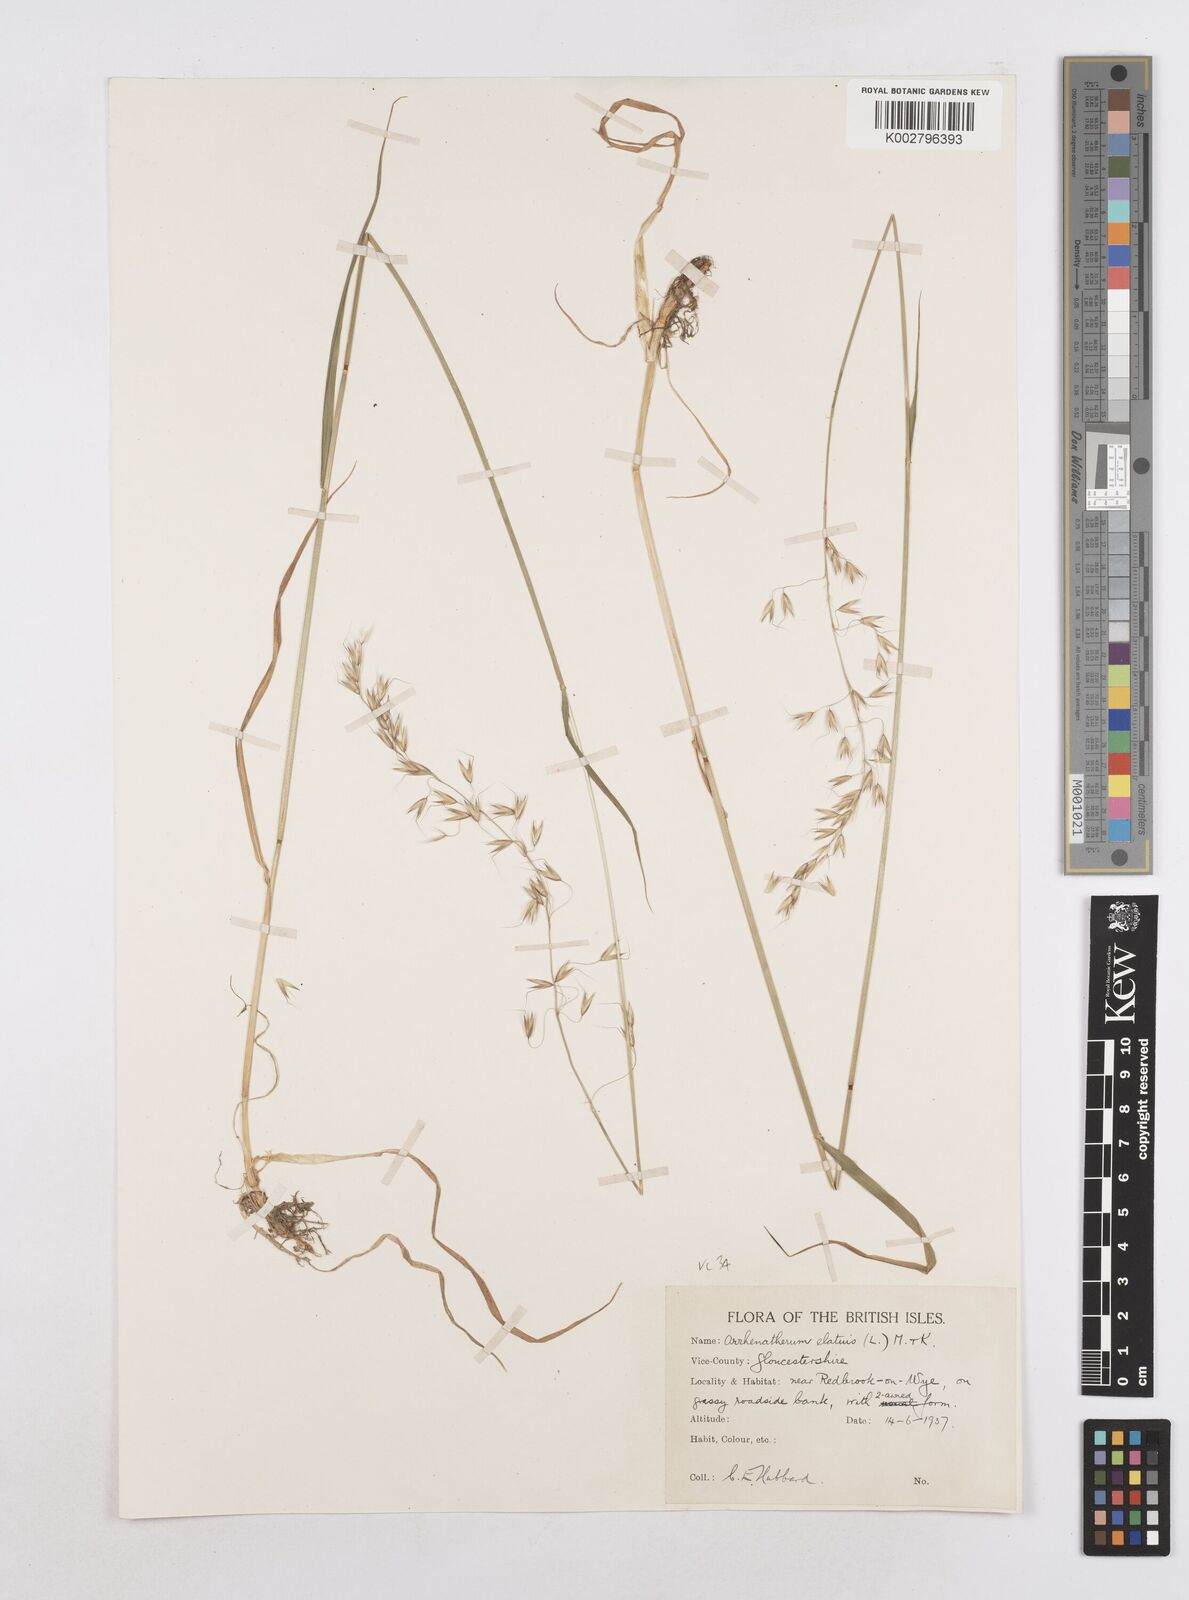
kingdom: Plantae
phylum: Tracheophyta
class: Liliopsida
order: Poales
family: Poaceae
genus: Arrhenatherum
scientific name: Arrhenatherum elatius
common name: Tall oatgrass
